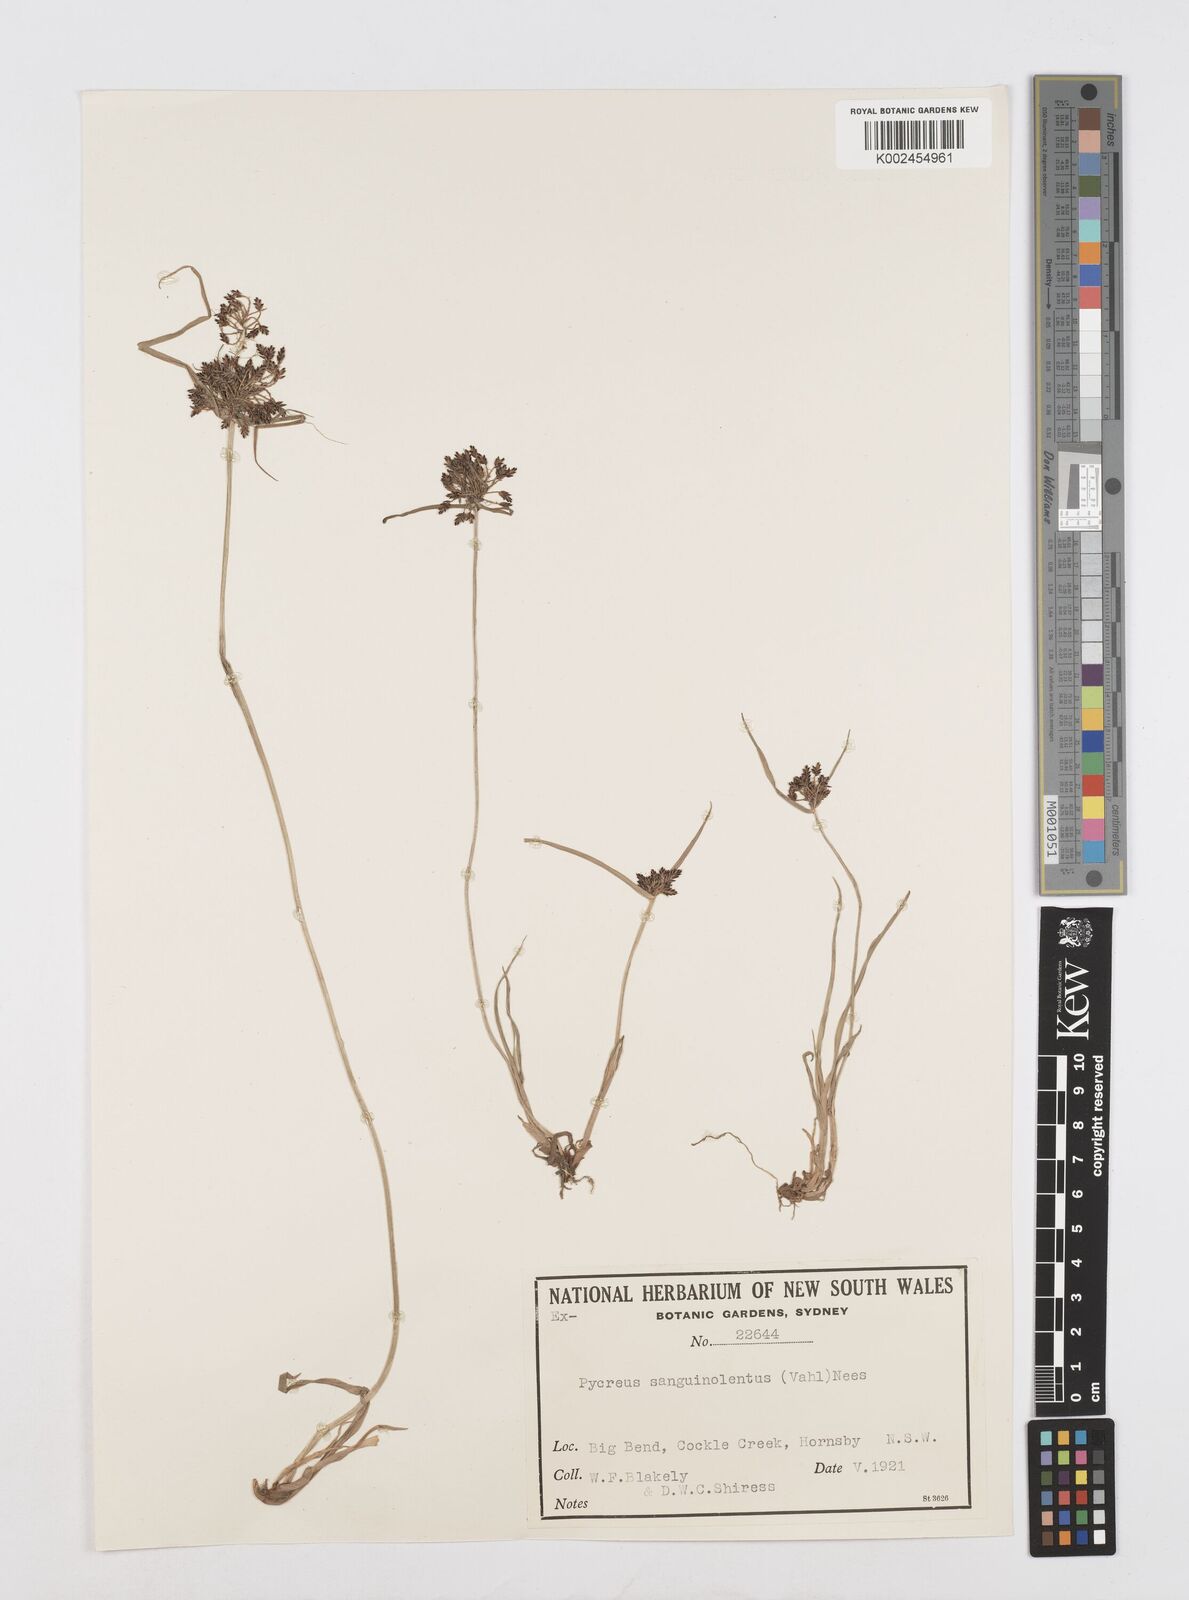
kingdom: Plantae
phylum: Tracheophyta
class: Liliopsida
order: Poales
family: Cyperaceae
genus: Cyperus
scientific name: Cyperus sanguinolentus
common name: Purpleglume flatsedge
